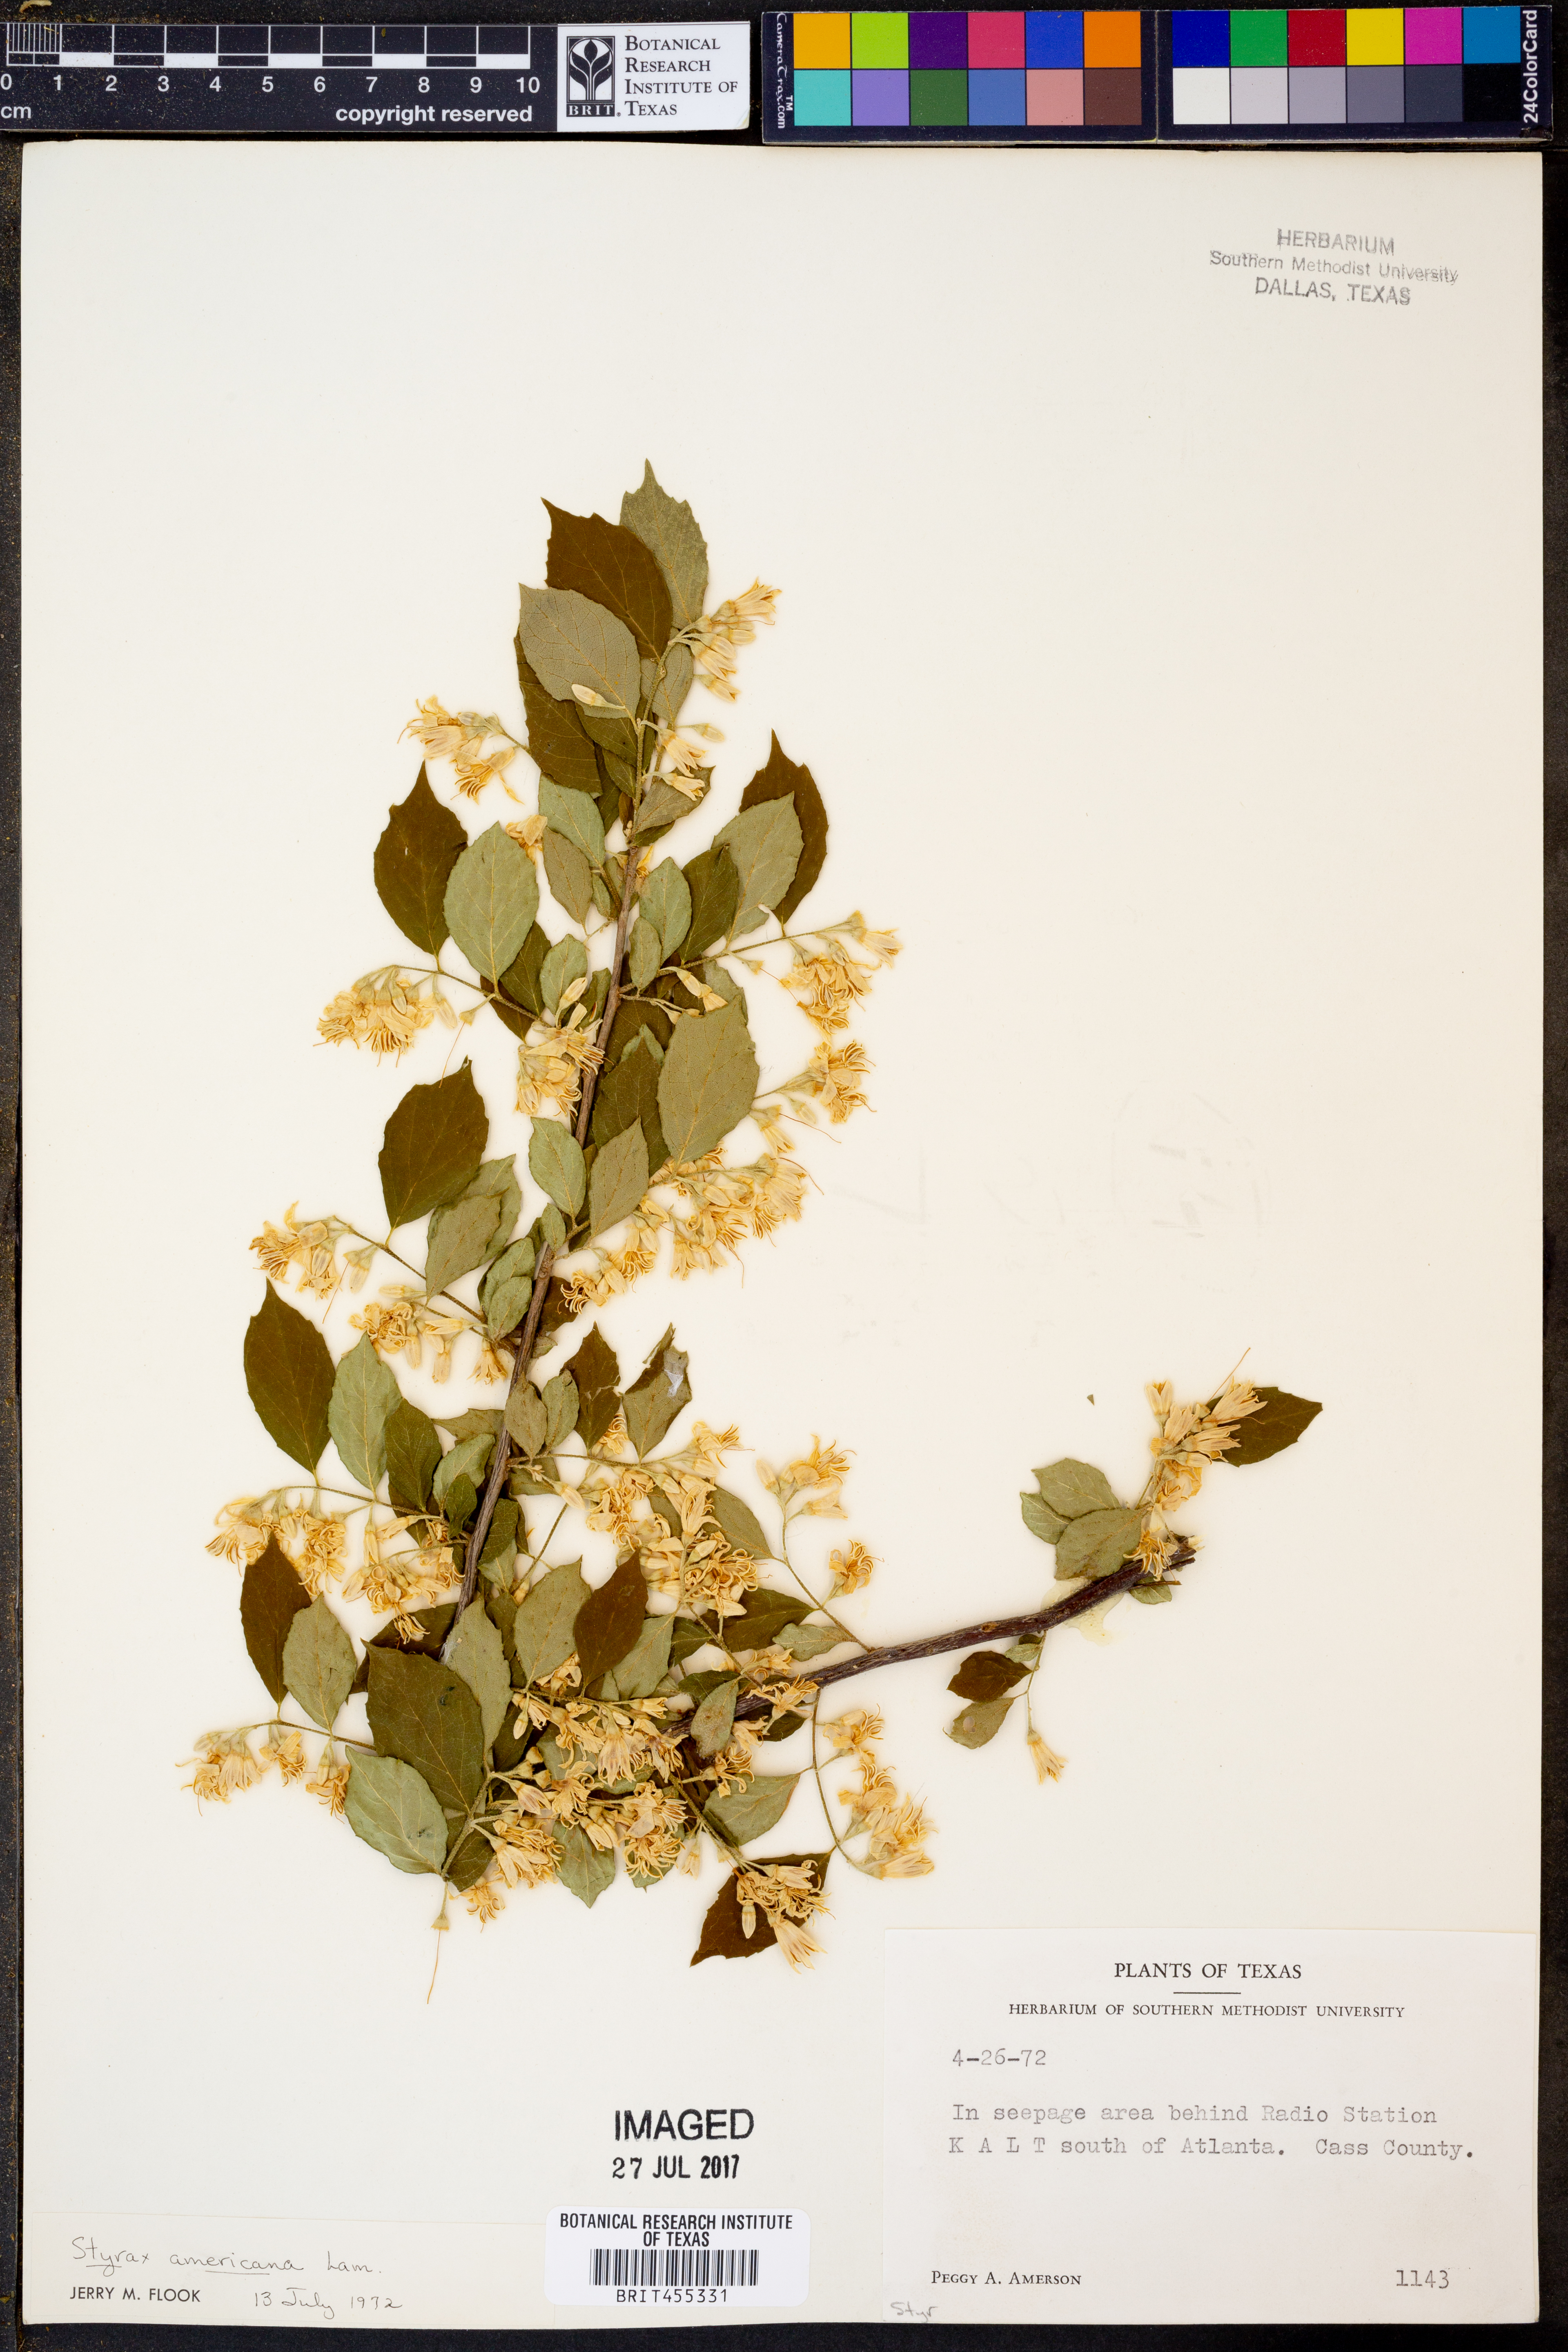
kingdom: Plantae
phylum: Tracheophyta
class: Magnoliopsida
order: Ericales
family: Styracaceae
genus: Styrax
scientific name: Styrax americanus
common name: American snowbell
